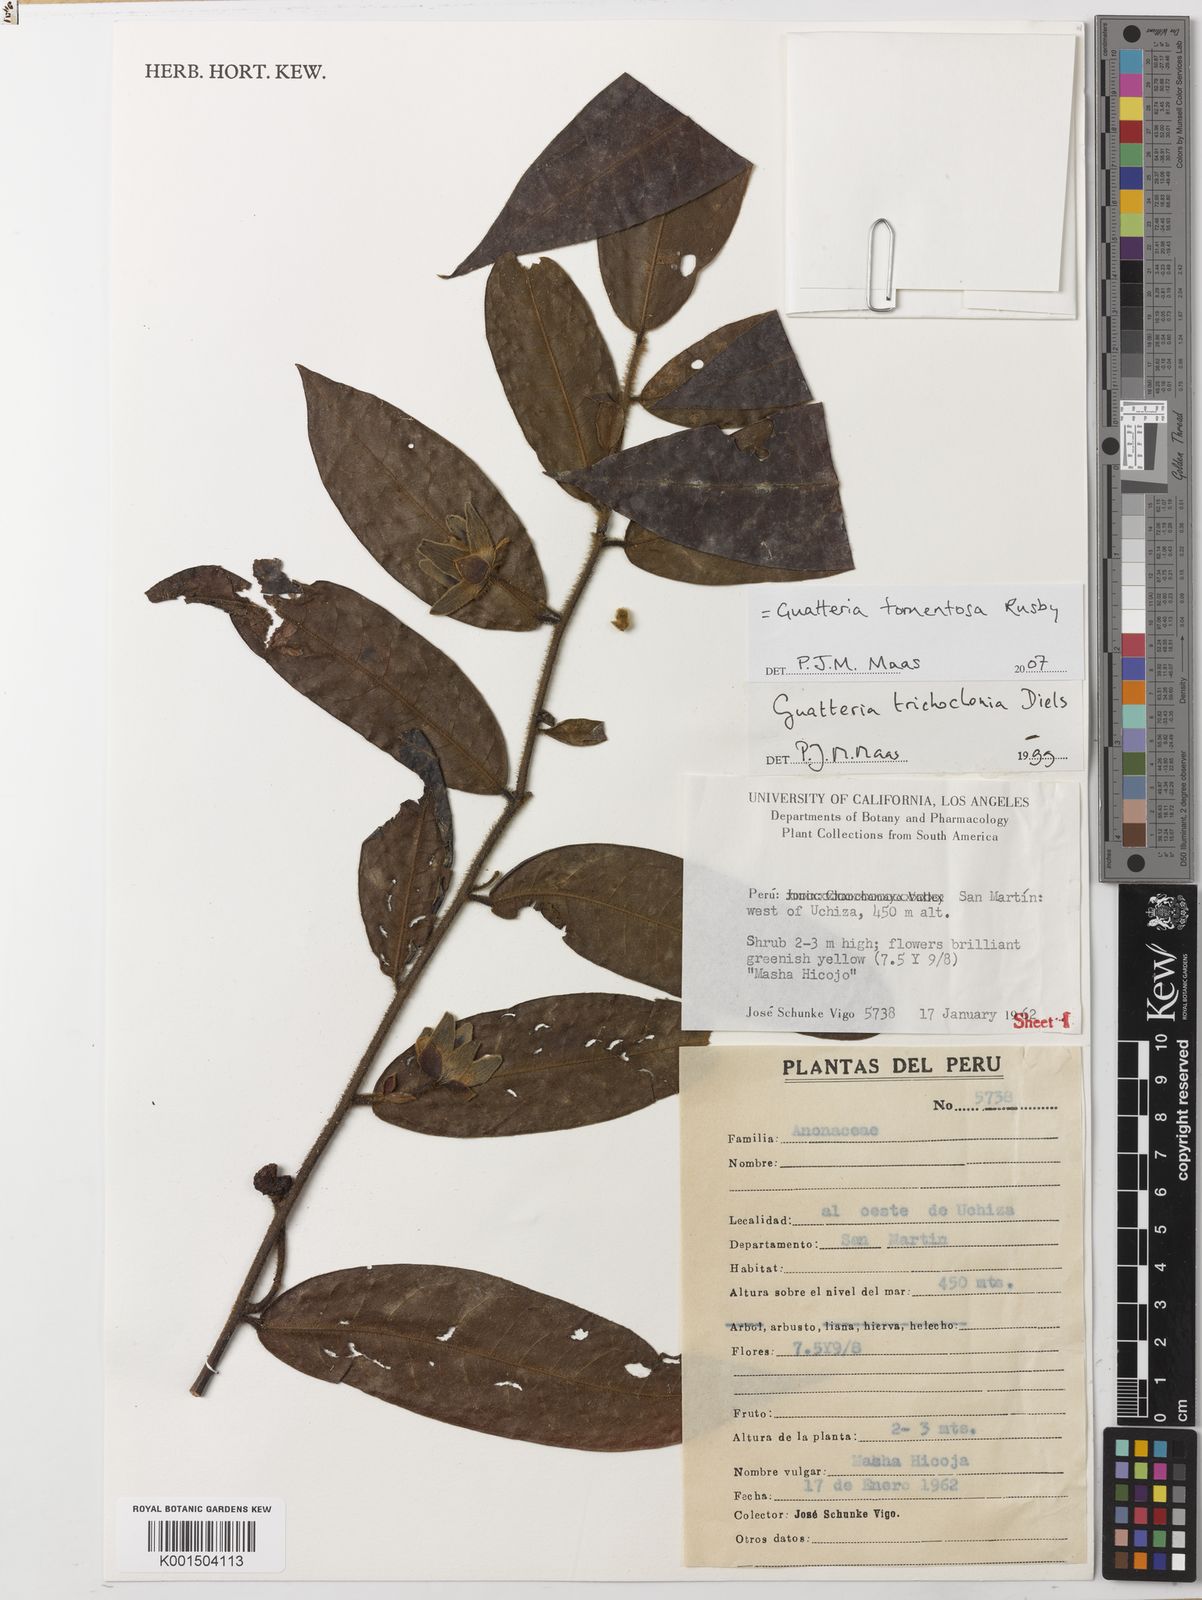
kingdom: Plantae
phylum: Tracheophyta
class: Magnoliopsida
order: Magnoliales
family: Annonaceae
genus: Guatteria
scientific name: Guatteria tomentosa
